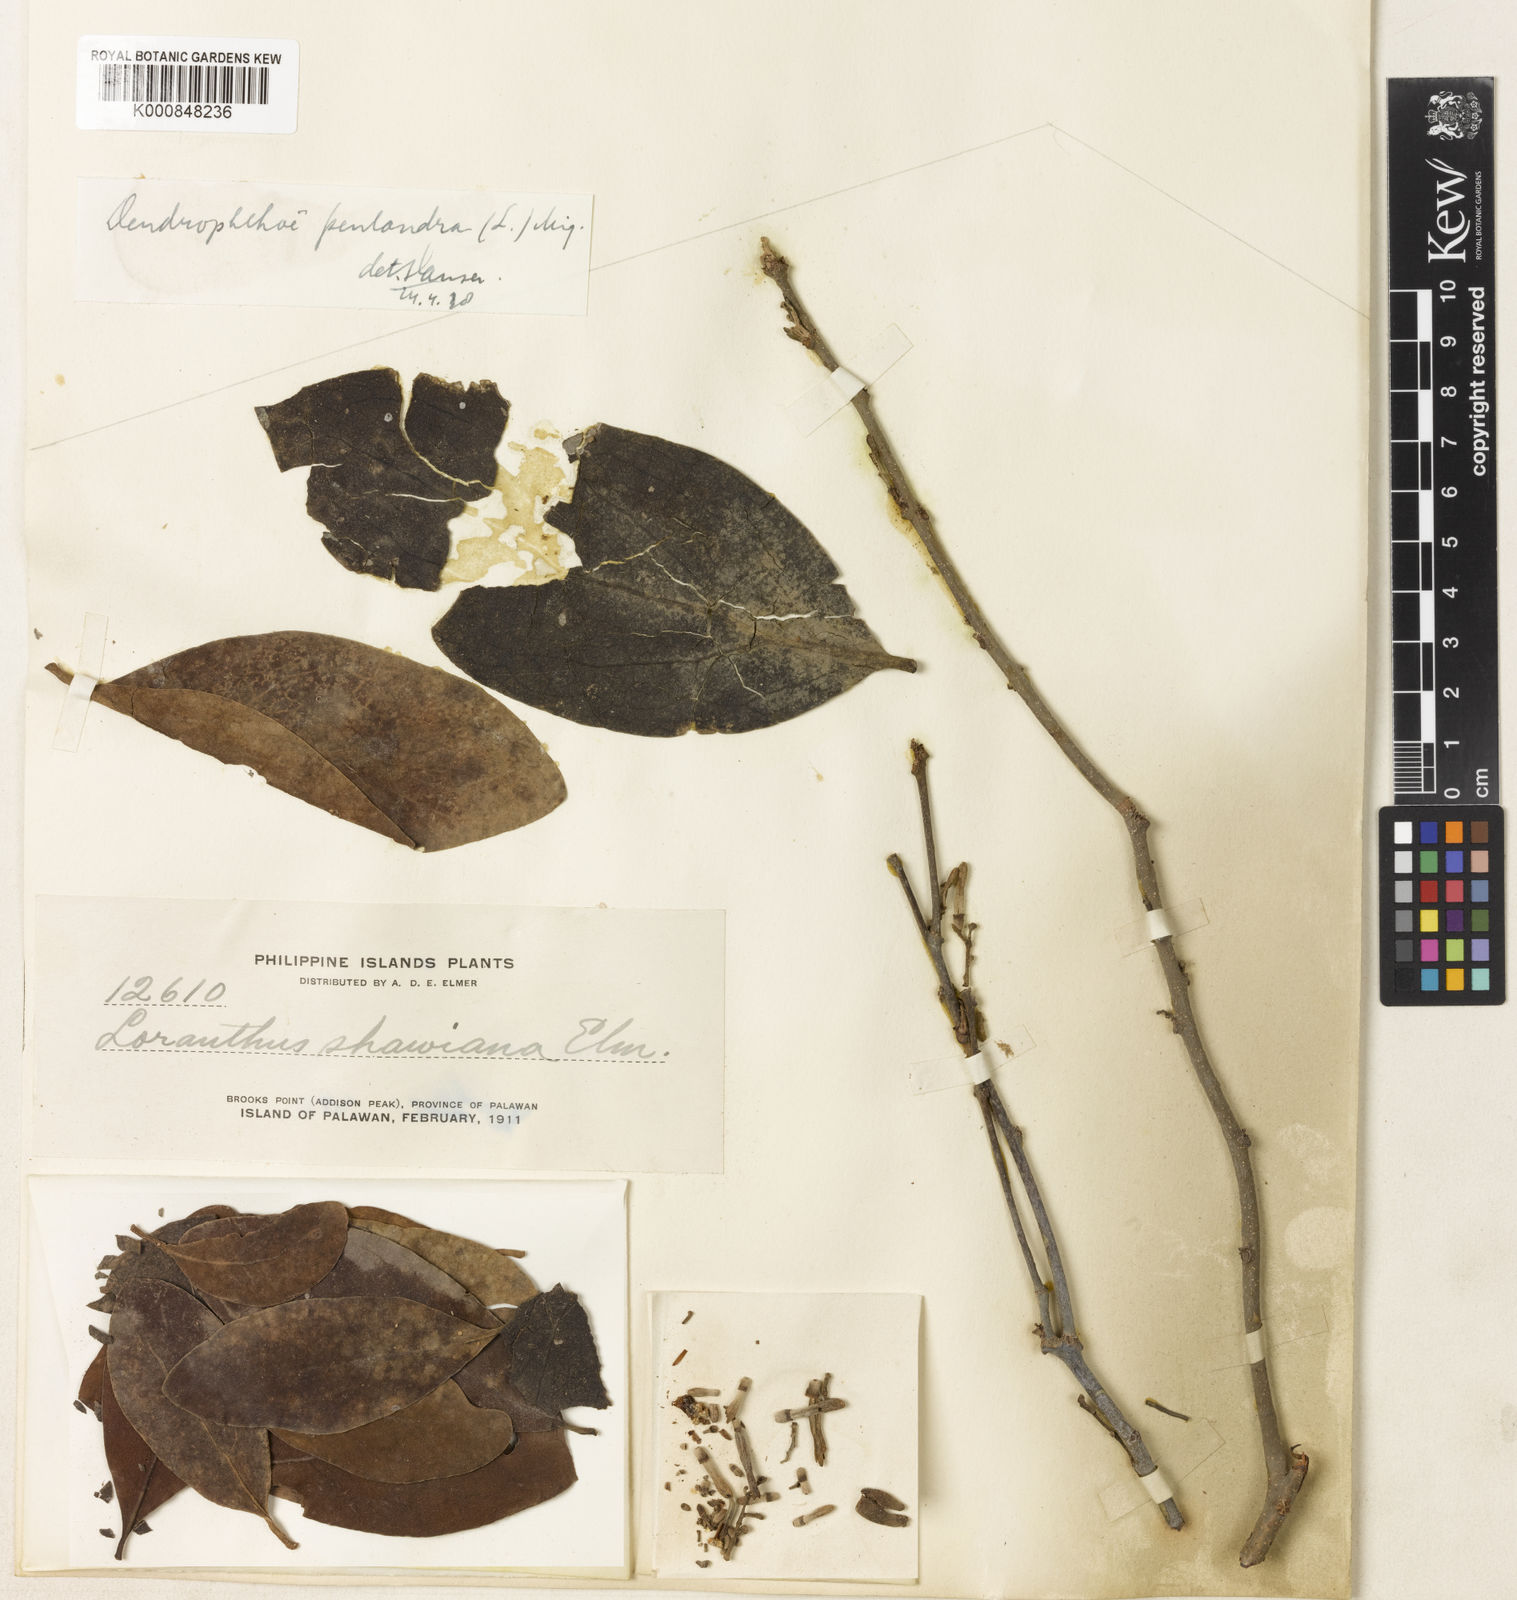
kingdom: Plantae
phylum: Tracheophyta
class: Magnoliopsida
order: Santalales
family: Loranthaceae
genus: Dendrophthoe
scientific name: Dendrophthoe pentandra
